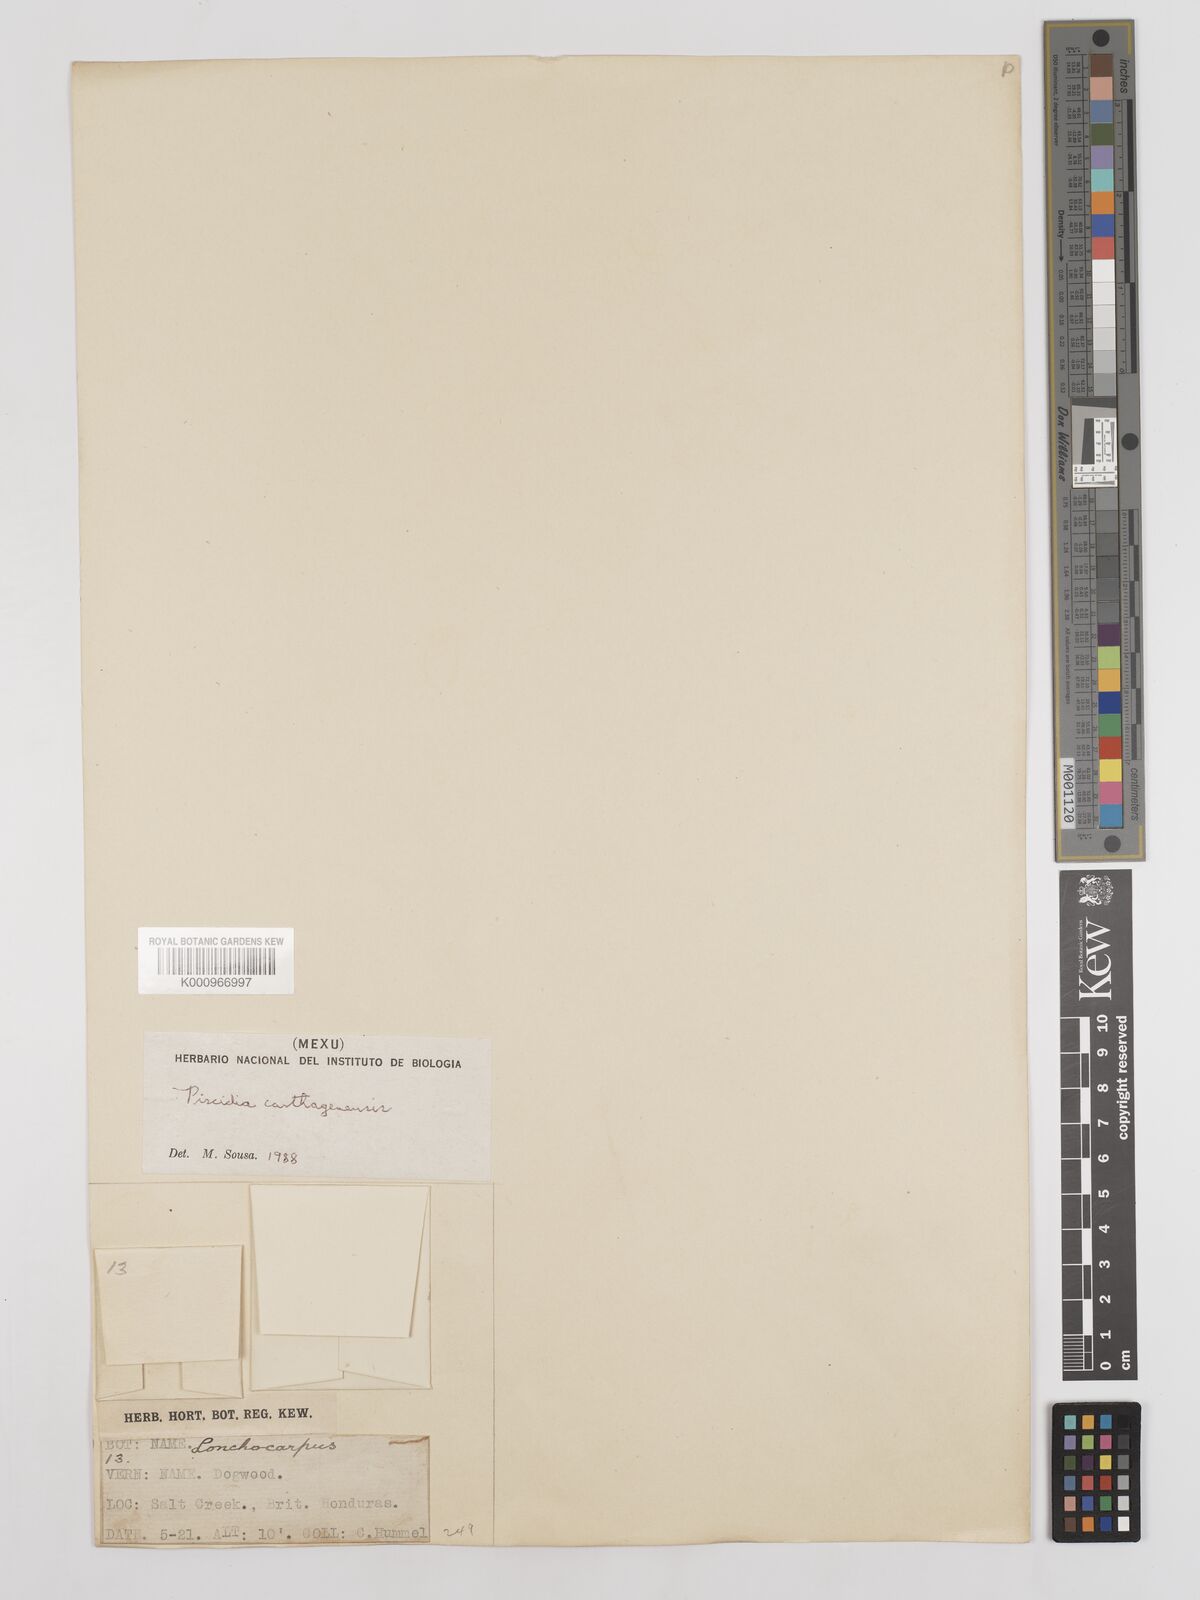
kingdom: Plantae
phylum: Tracheophyta
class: Magnoliopsida
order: Fabales
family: Fabaceae
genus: Piscidia
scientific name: Piscidia carthagenensis
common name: Stinkwood
